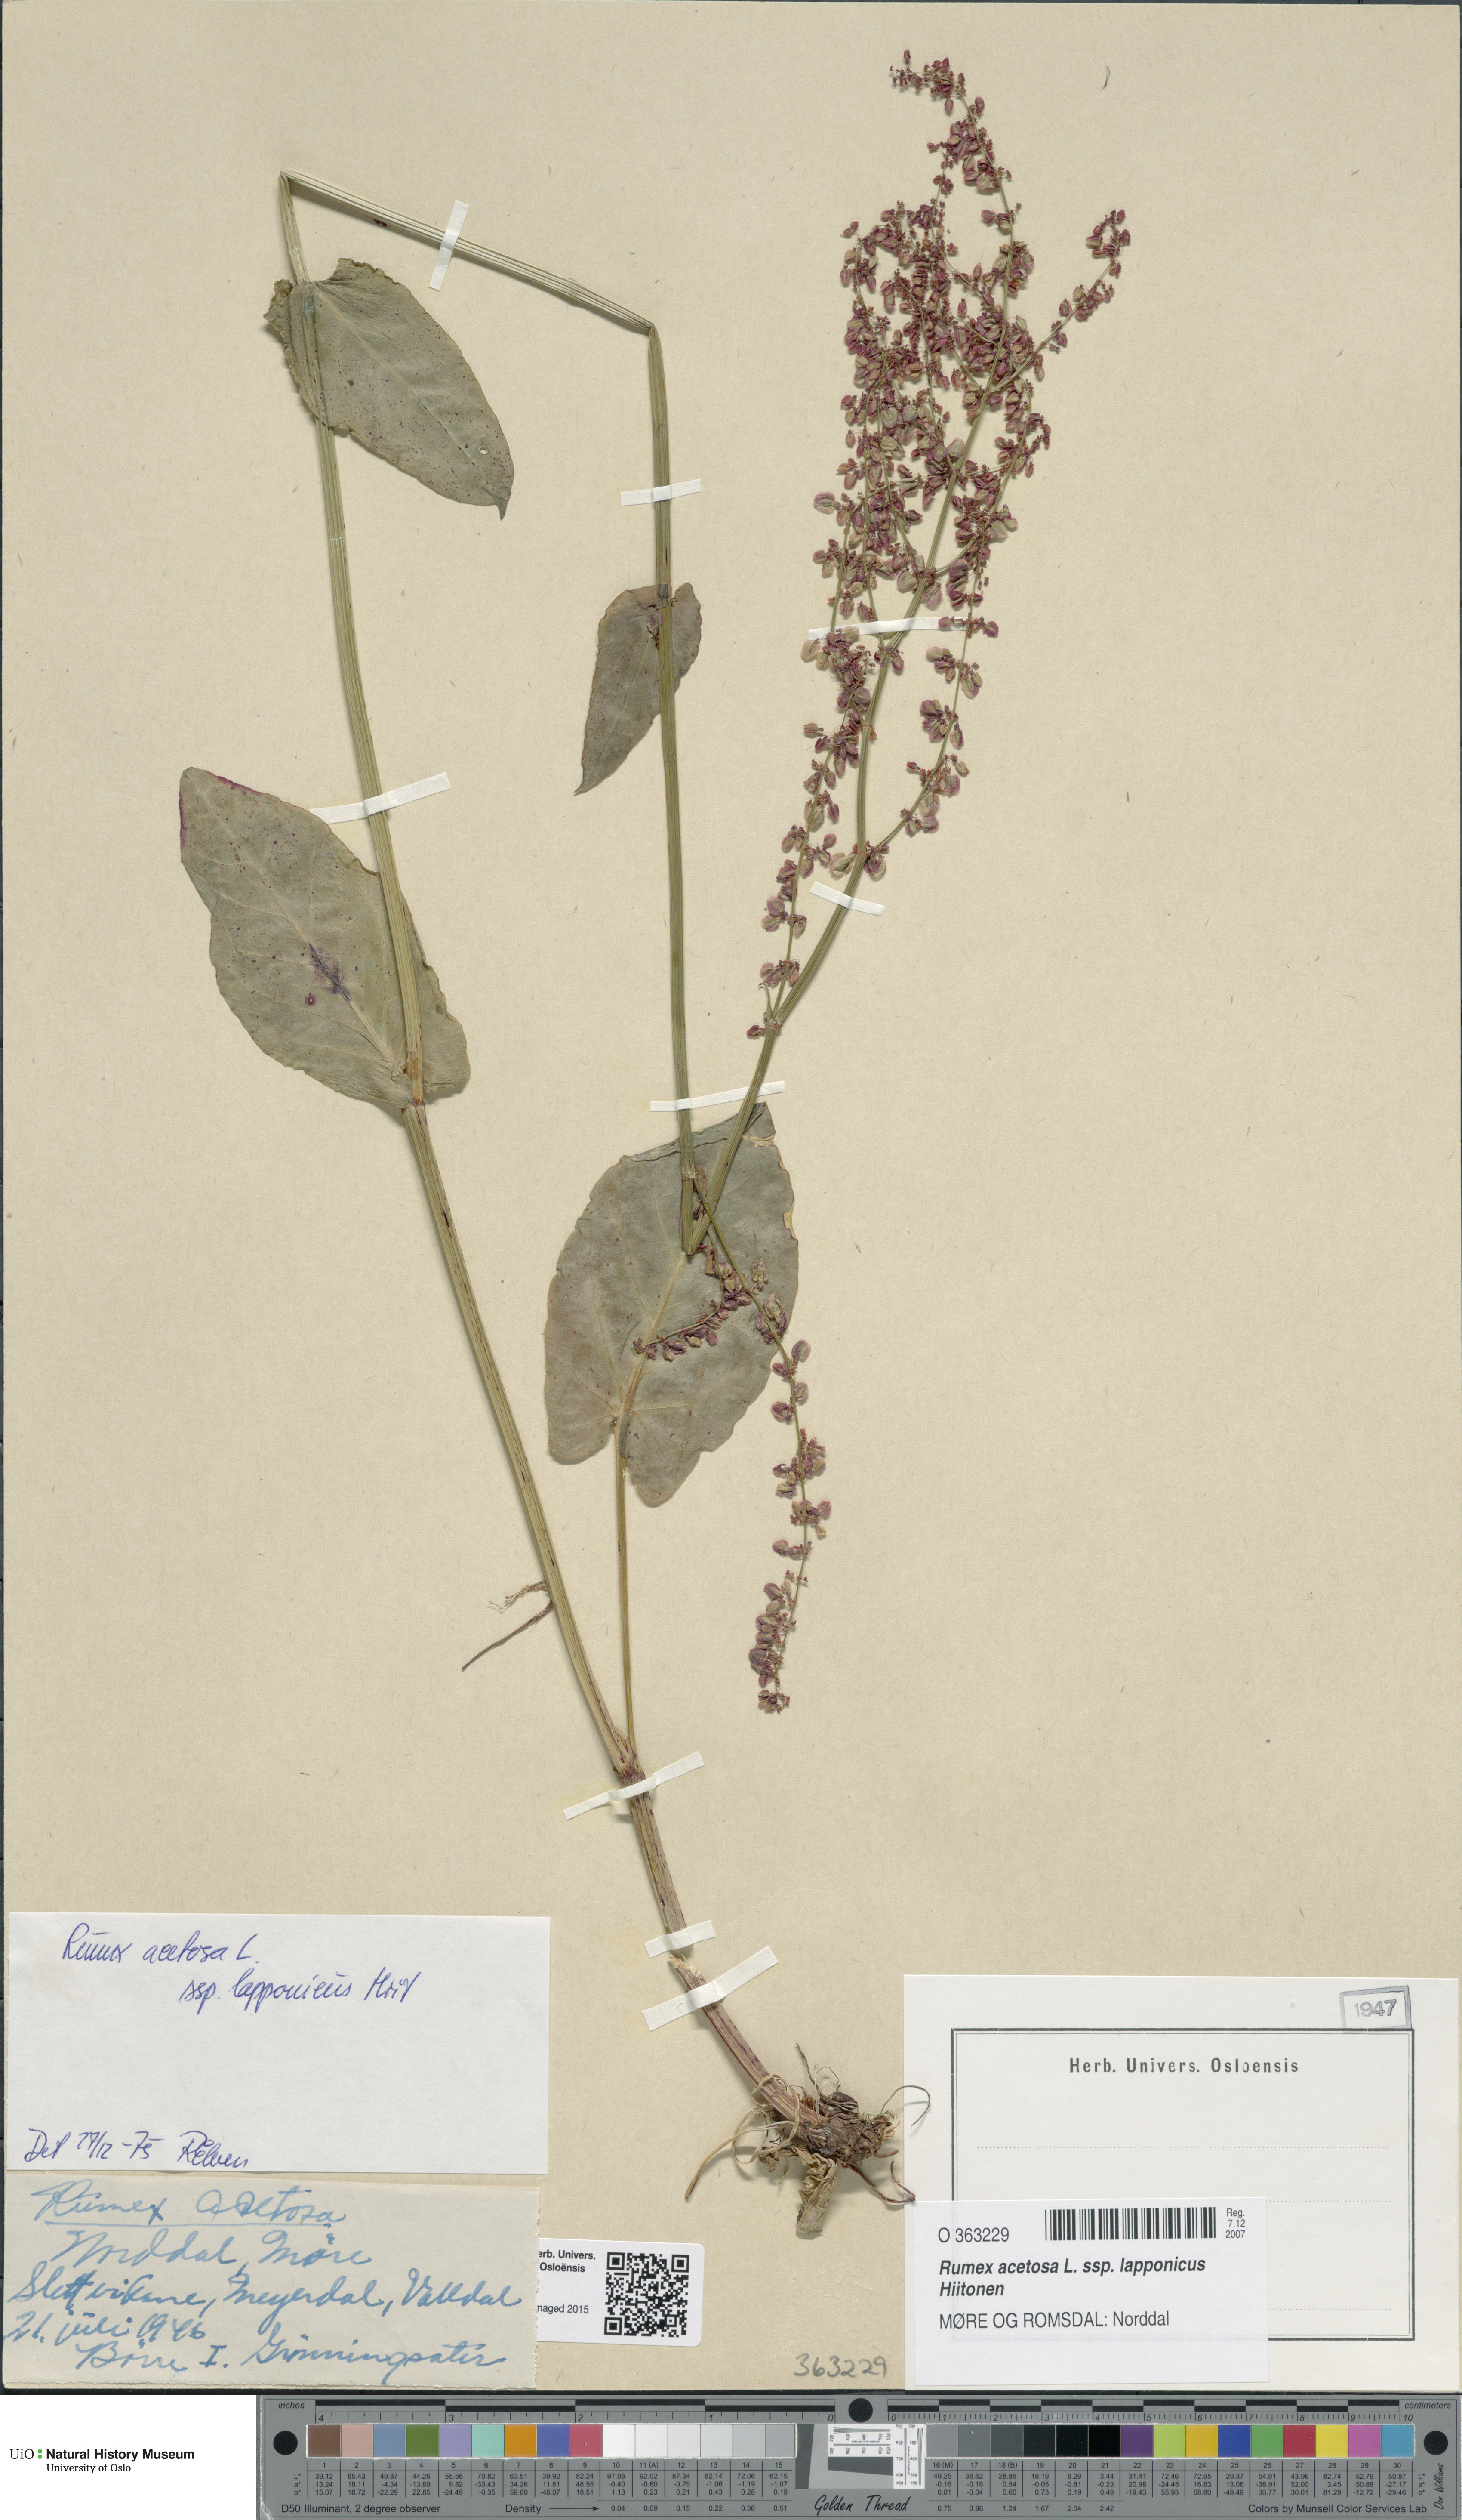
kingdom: Plantae
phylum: Tracheophyta
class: Magnoliopsida
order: Caryophyllales
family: Polygonaceae
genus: Rumex
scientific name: Rumex lapponicus
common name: Lapland mountain sorrel
